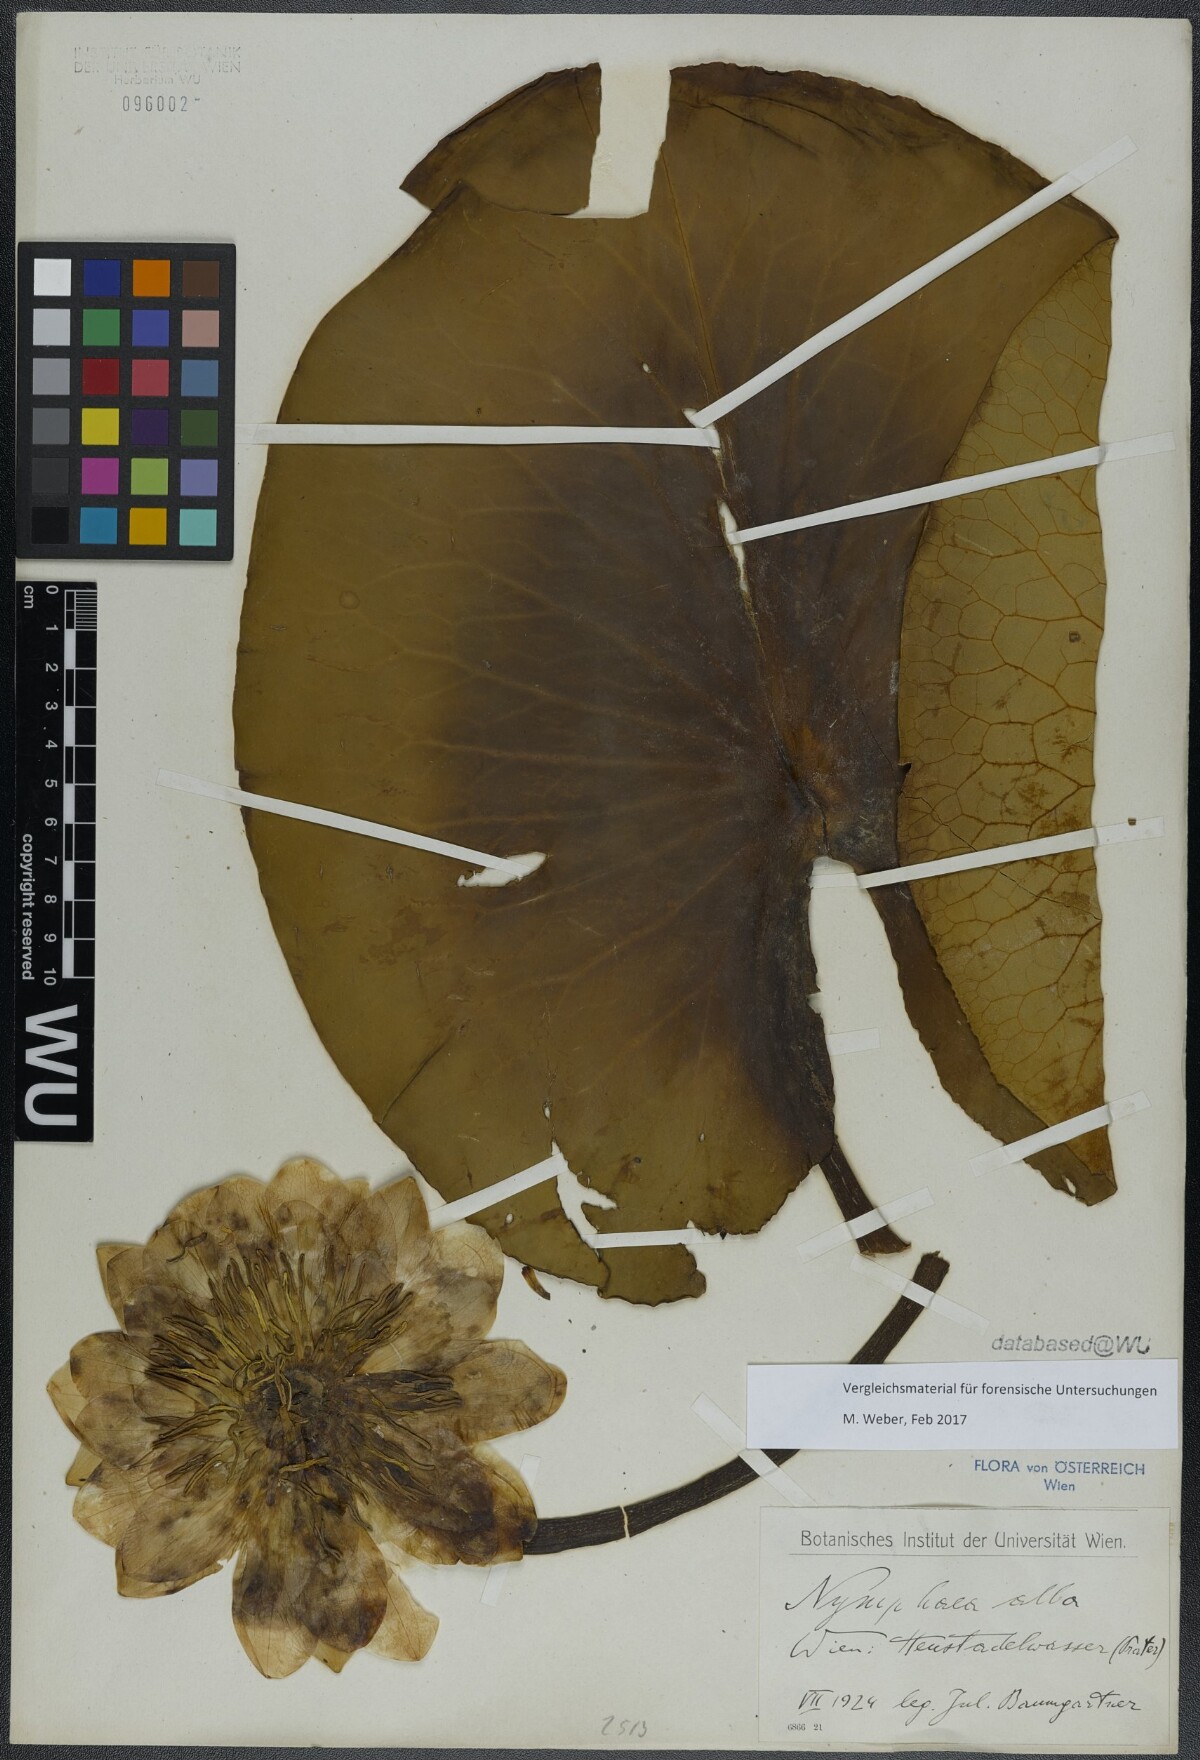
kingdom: Plantae
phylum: Tracheophyta
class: Magnoliopsida
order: Nymphaeales
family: Nymphaeaceae
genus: Nymphaea
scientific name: Nymphaea alba
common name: White water-lily
